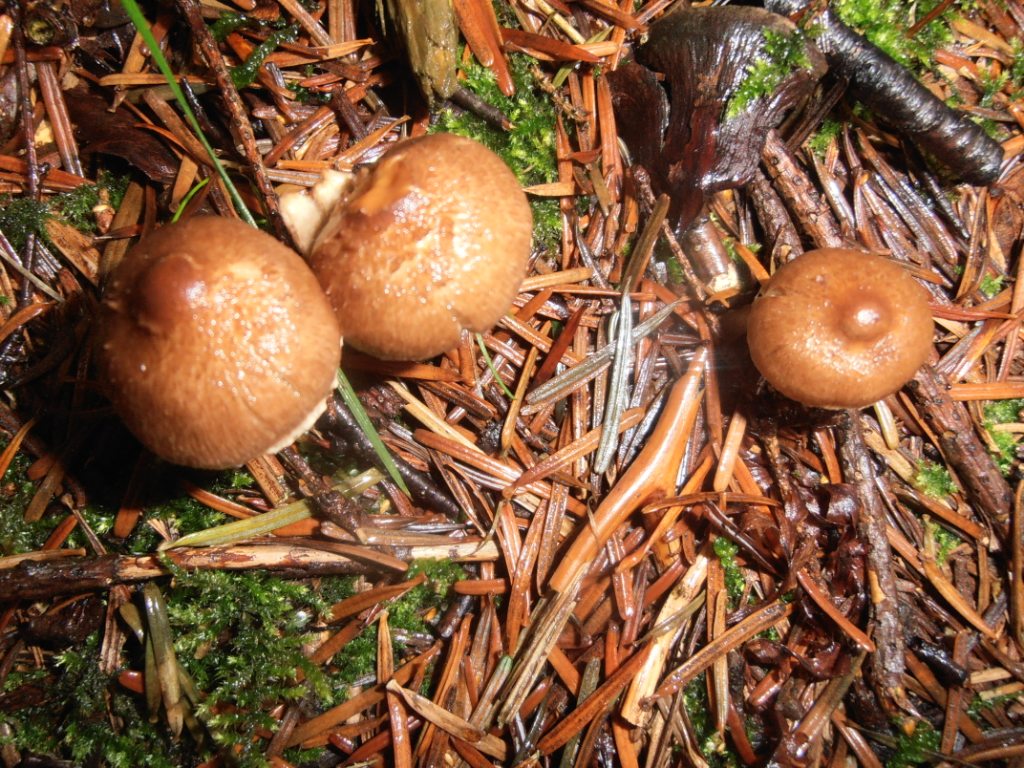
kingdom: Fungi
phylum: Basidiomycota
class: Agaricomycetes
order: Agaricales
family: Inocybaceae
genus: Inocybe
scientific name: Inocybe
